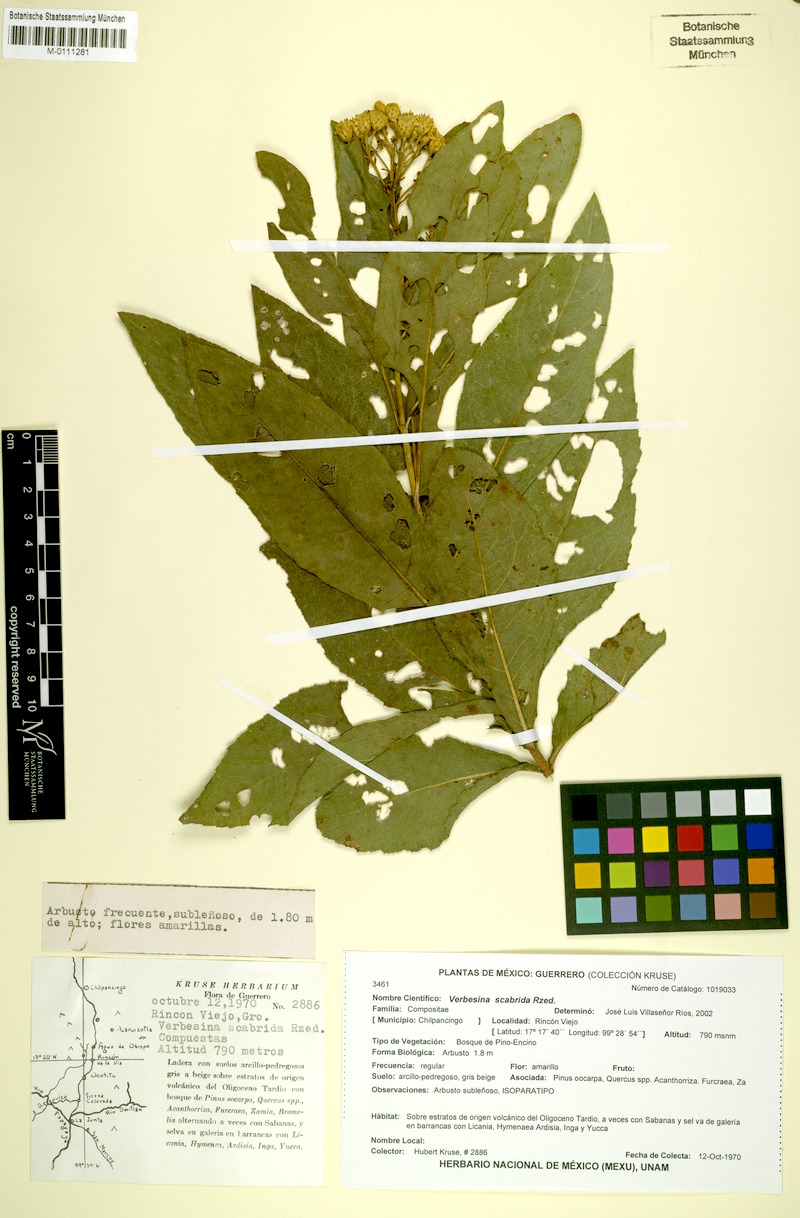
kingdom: Plantae
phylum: Tracheophyta
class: Magnoliopsida
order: Asterales
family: Asteraceae
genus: Verbesina
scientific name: Verbesina scabrida
